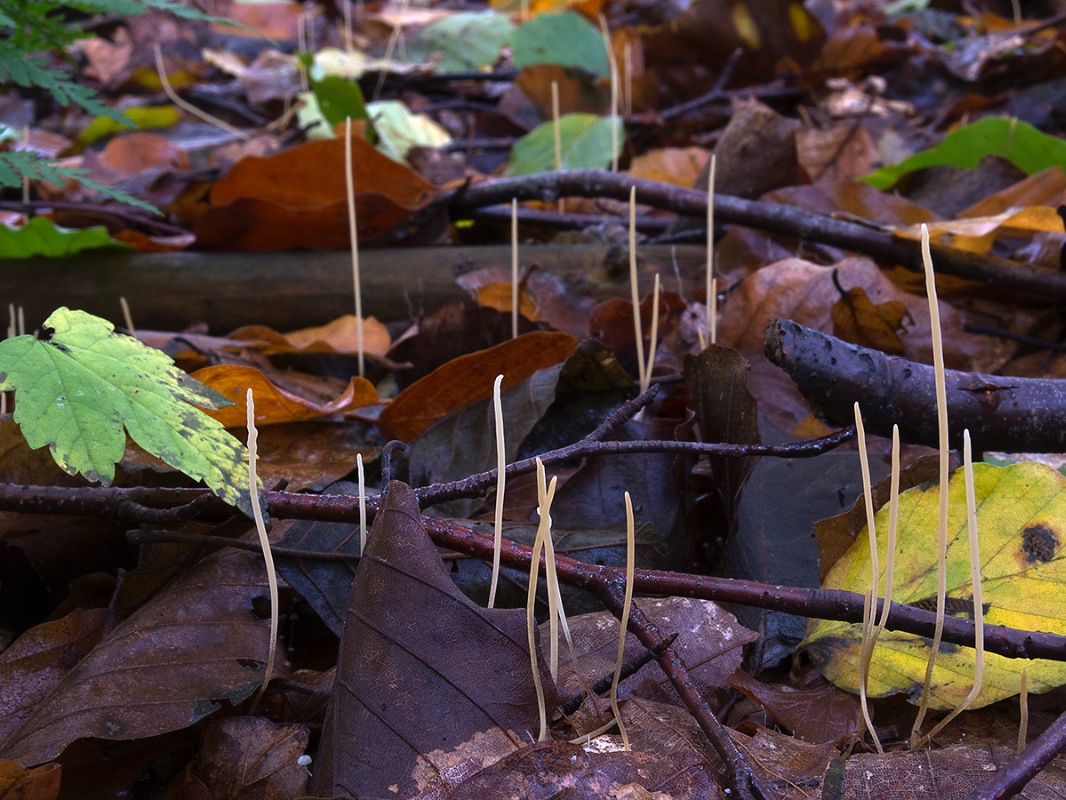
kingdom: Fungi
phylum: Basidiomycota
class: Agaricomycetes
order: Agaricales
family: Typhulaceae
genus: Typhula
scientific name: Typhula juncea
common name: trådagtig rørkølle
